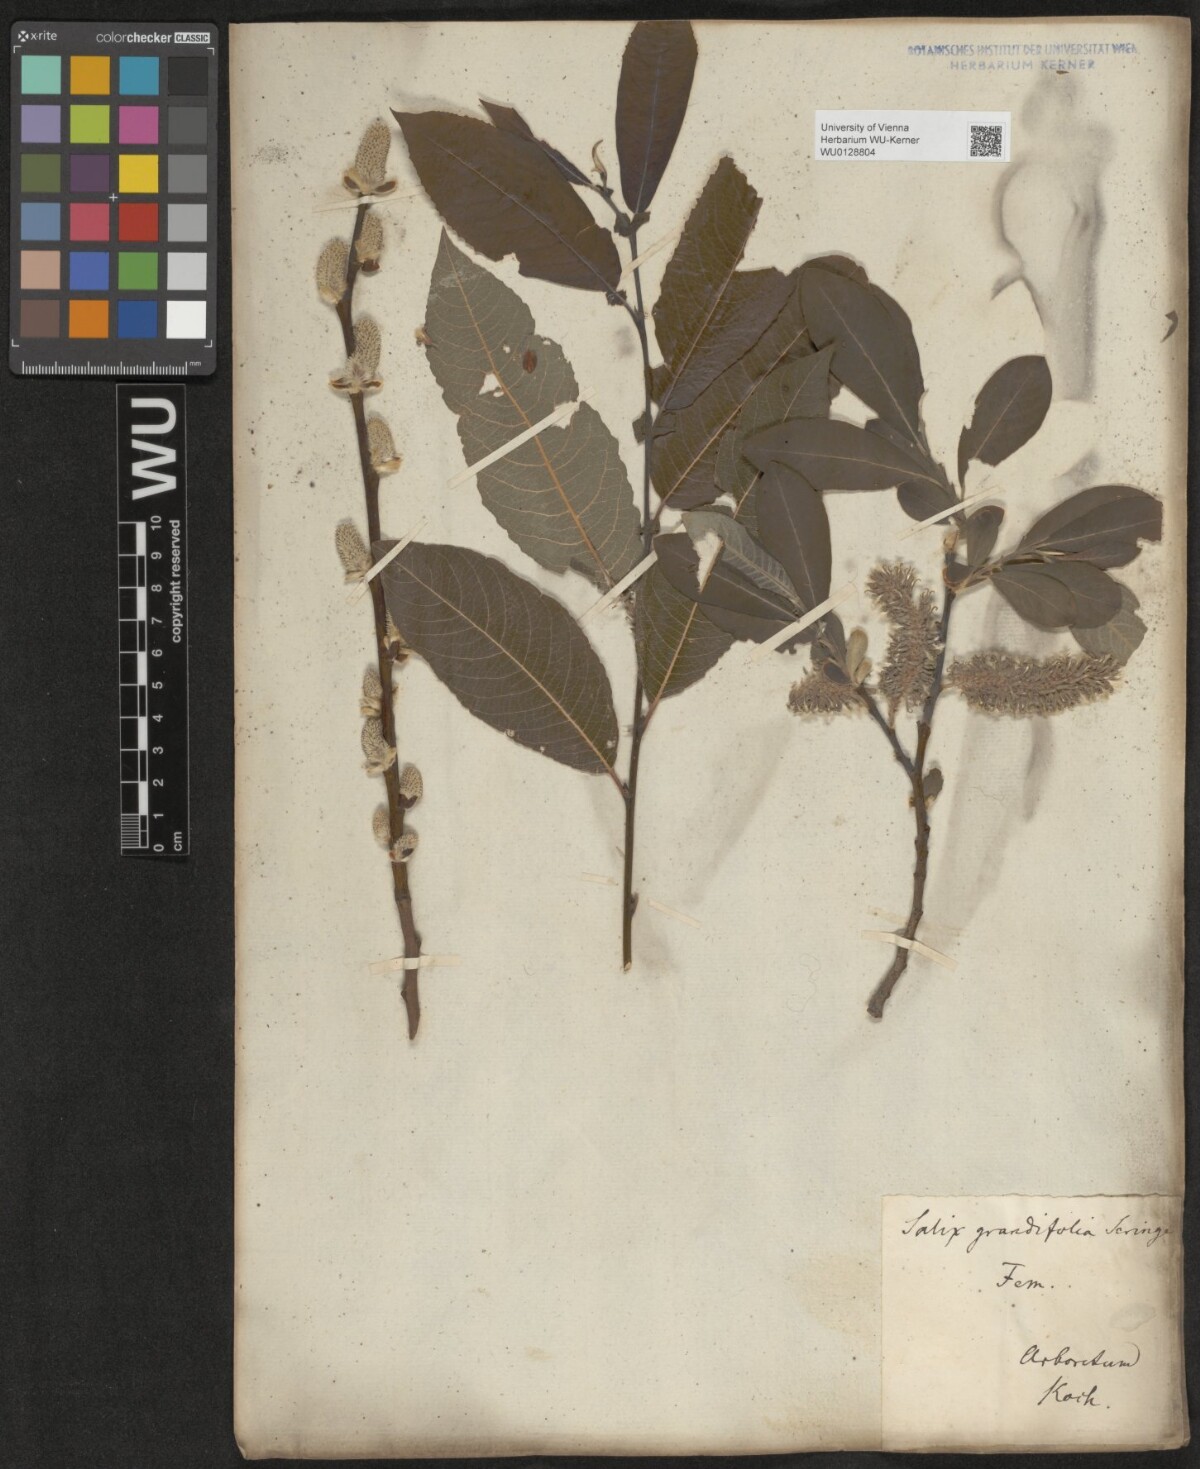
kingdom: Plantae
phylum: Tracheophyta
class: Magnoliopsida
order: Malpighiales
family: Salicaceae
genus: Salix
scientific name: Salix appendiculata
